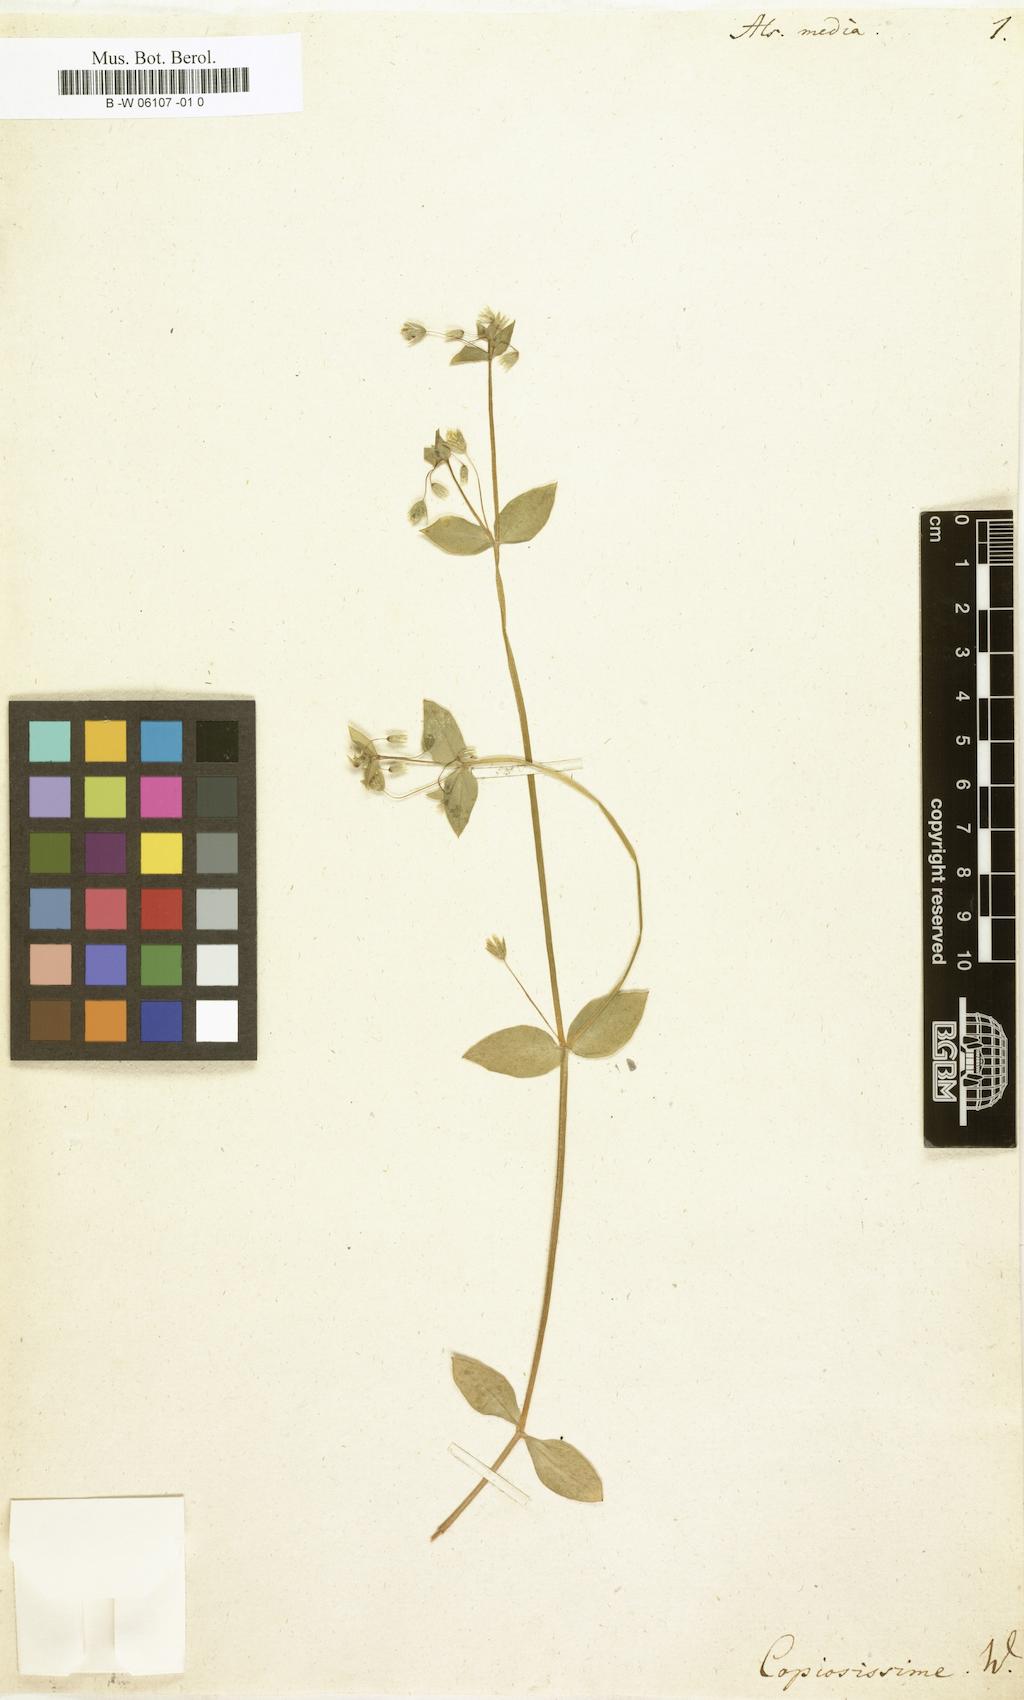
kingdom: Plantae
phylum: Tracheophyta
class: Magnoliopsida
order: Caryophyllales
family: Caryophyllaceae
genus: Stellaria
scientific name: Stellaria media
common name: Common chickweed
